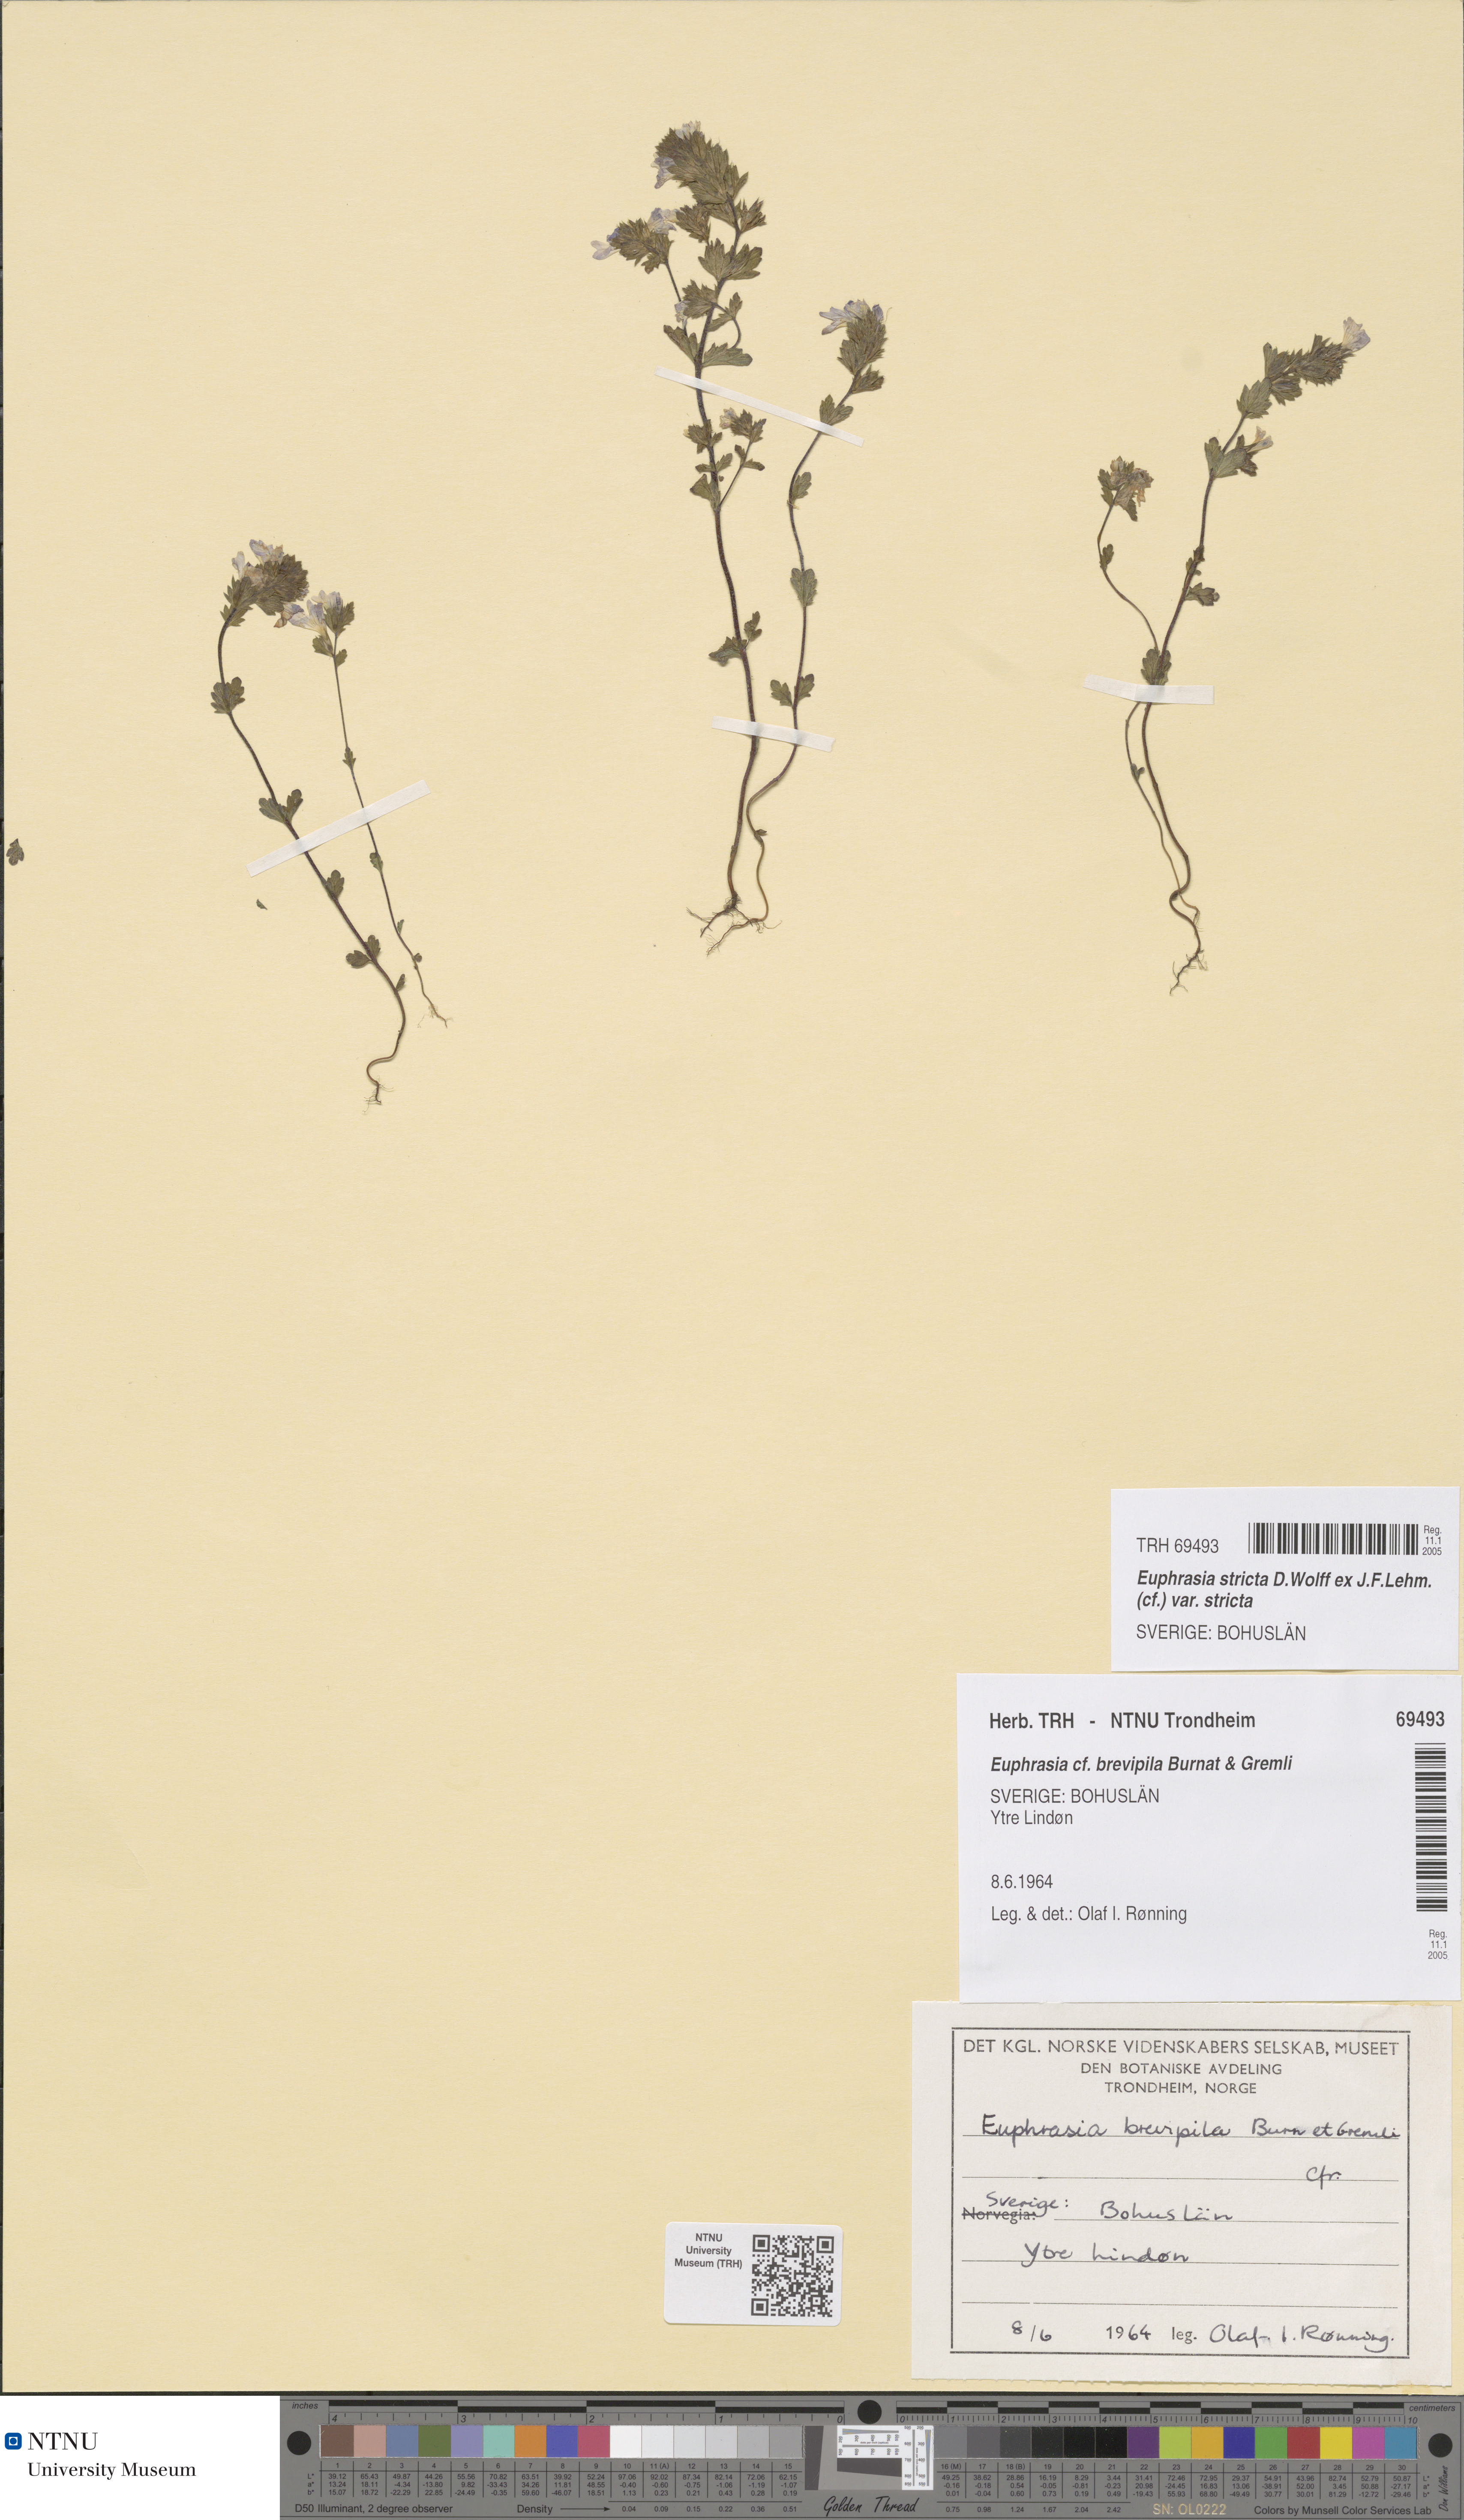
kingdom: Plantae
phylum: Tracheophyta
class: Magnoliopsida
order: Lamiales
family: Orobanchaceae
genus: Euphrasia
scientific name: Euphrasia vernalis
